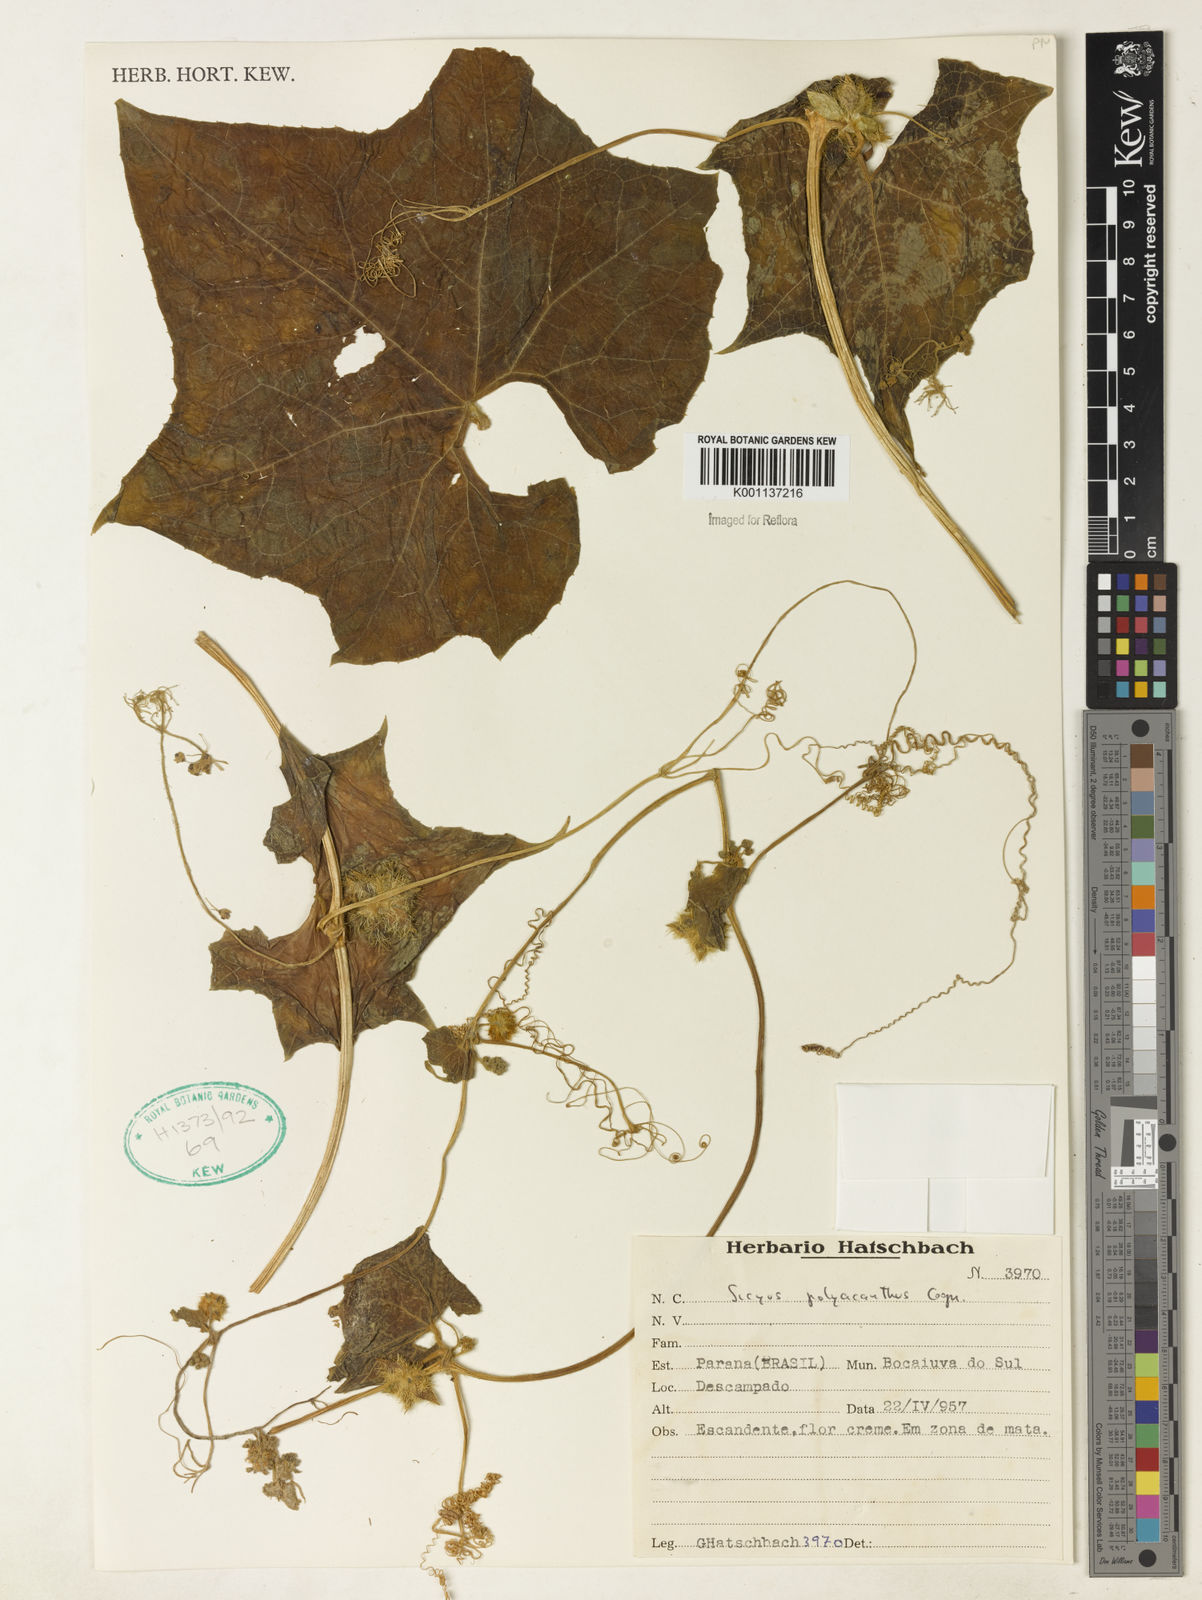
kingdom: Plantae
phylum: Tracheophyta
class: Magnoliopsida
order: Cucurbitales
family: Cucurbitaceae
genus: Sicyos
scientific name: Sicyos polyacanthos
